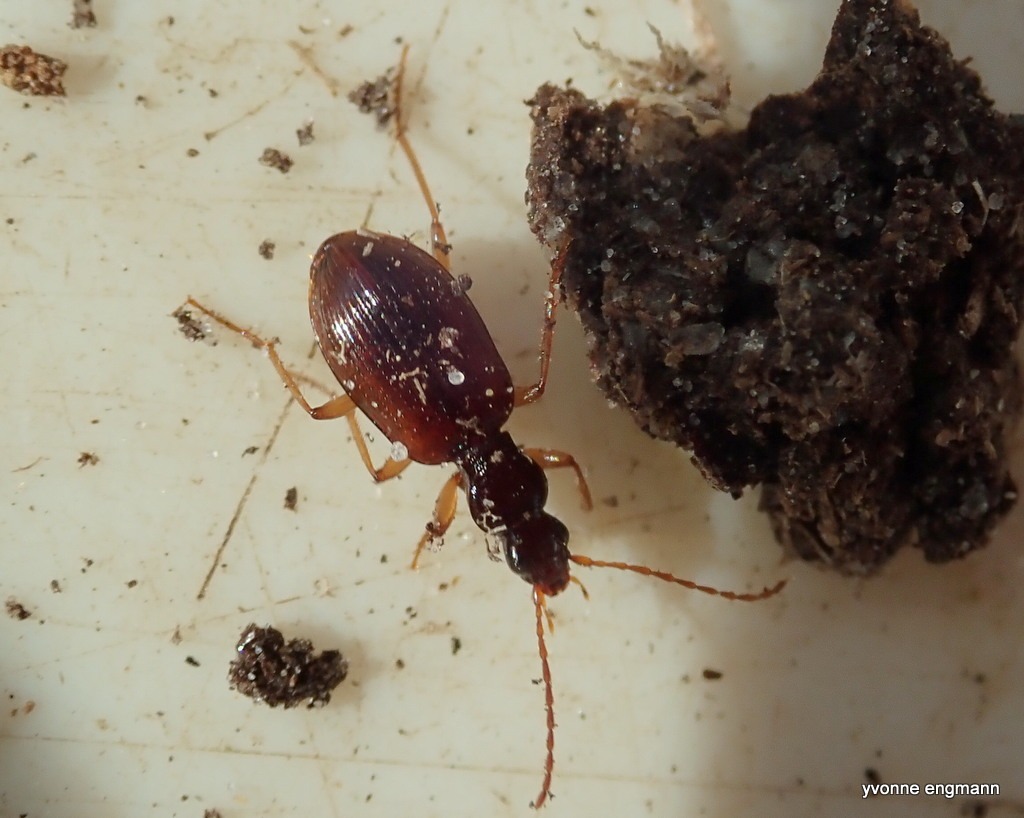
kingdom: Animalia
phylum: Arthropoda
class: Insecta
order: Coleoptera
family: Carabidae
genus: Oxypselaphus
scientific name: Oxypselaphus obscurus
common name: Rødbrun kvikløber
